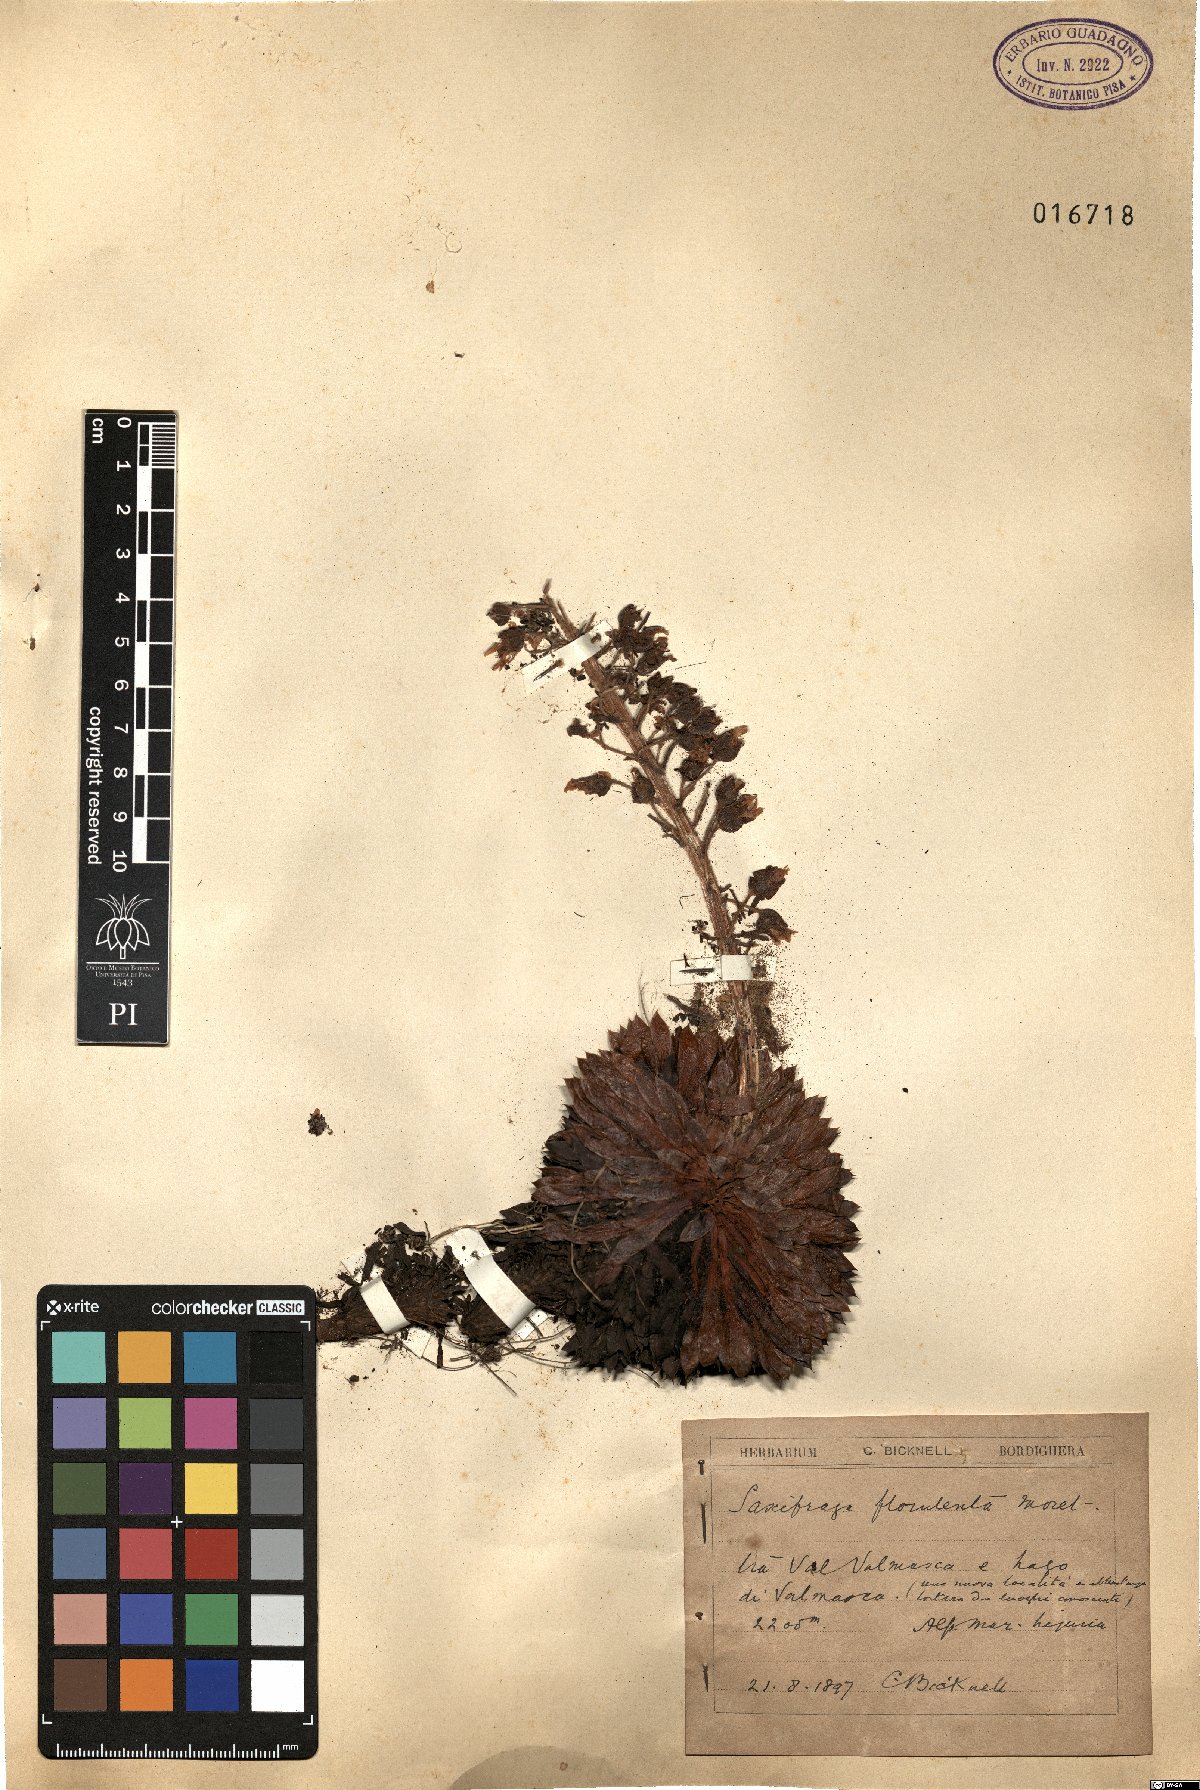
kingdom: Plantae
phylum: Tracheophyta
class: Magnoliopsida
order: Saxifragales
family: Saxifragaceae
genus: Saxifraga
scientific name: Saxifraga florulenta
